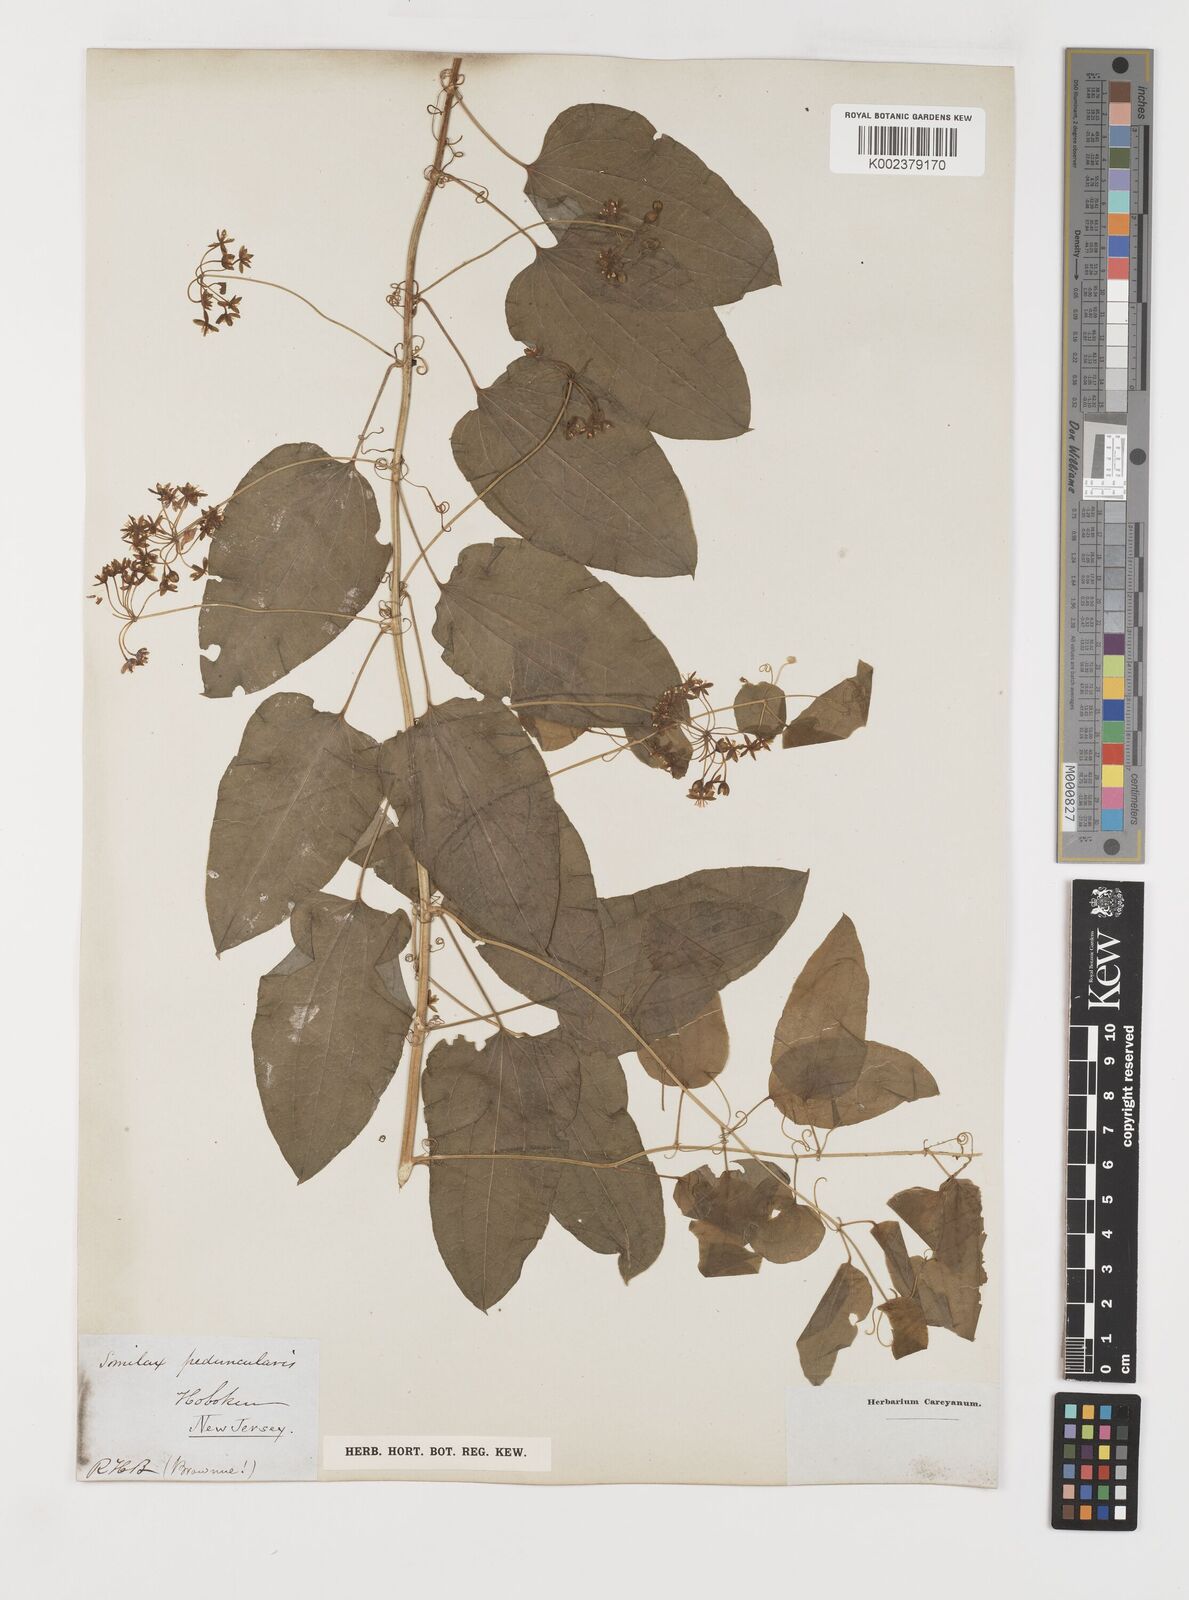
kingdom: Plantae
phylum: Tracheophyta
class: Liliopsida
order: Liliales
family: Smilacaceae
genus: Smilax
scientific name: Smilax herbacea
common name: Jacob's-ladder
